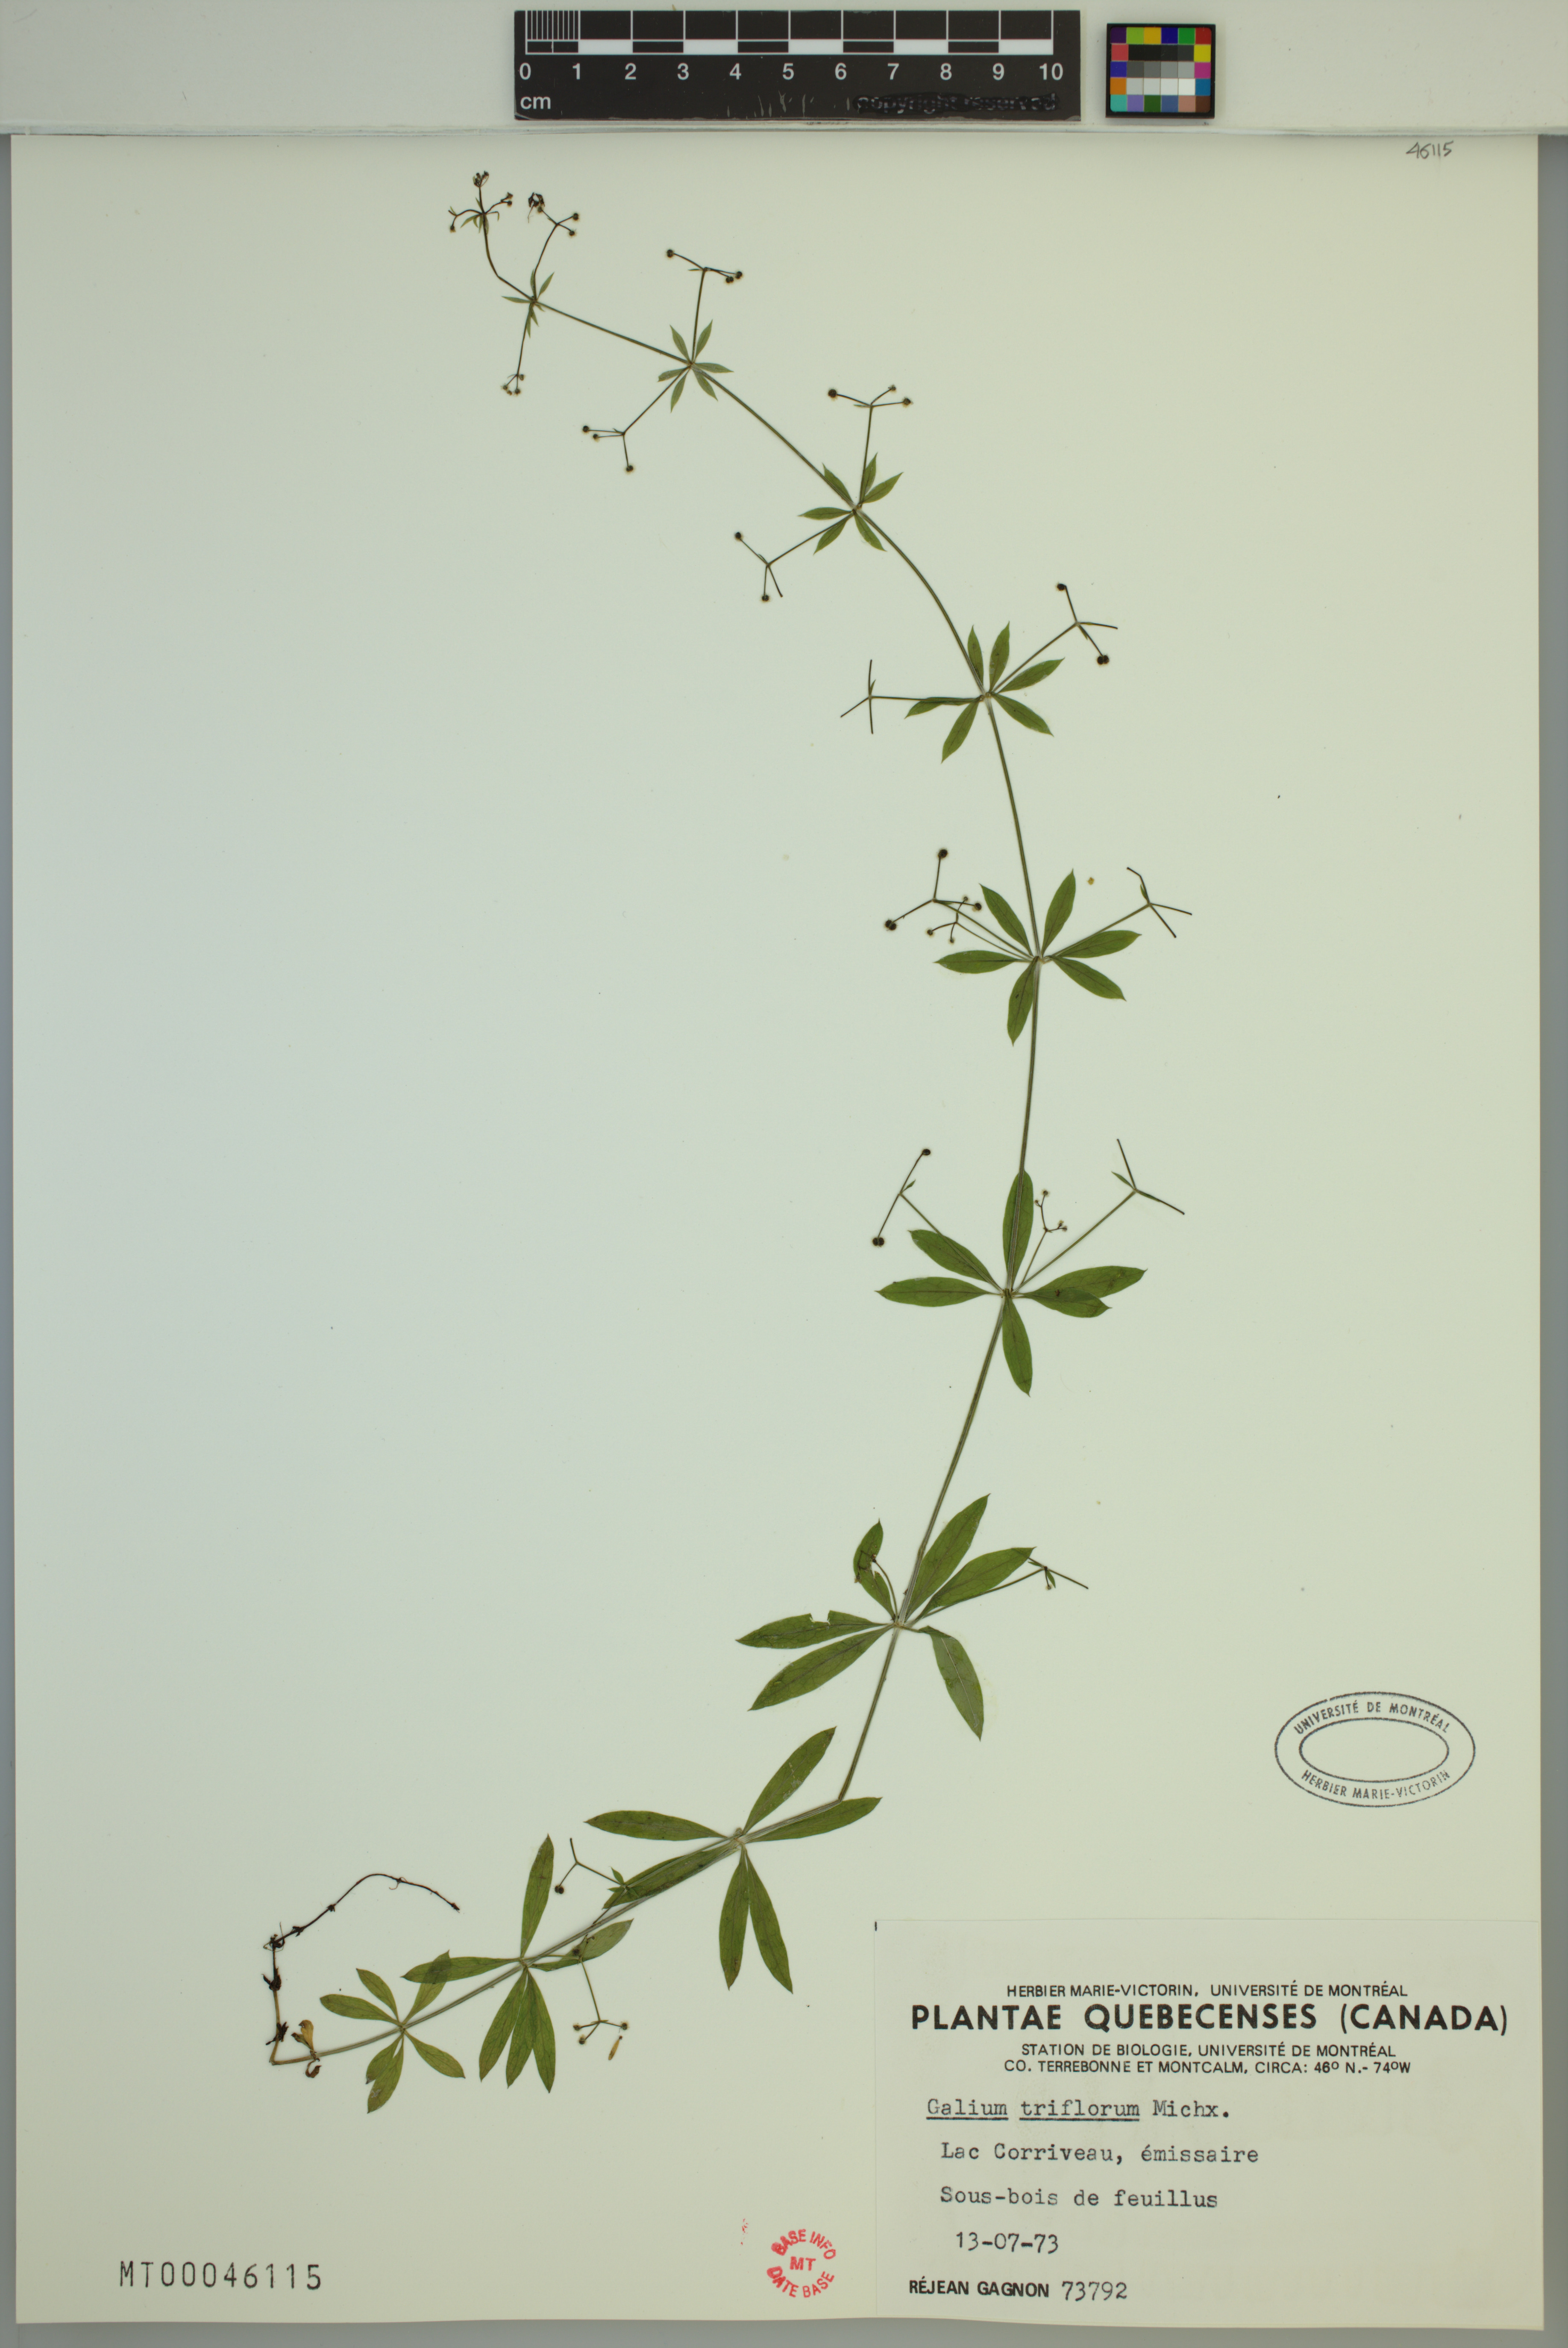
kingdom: Plantae
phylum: Tracheophyta
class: Magnoliopsida
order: Gentianales
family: Rubiaceae
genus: Galium
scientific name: Galium triflorum
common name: Fragrant bedstraw
